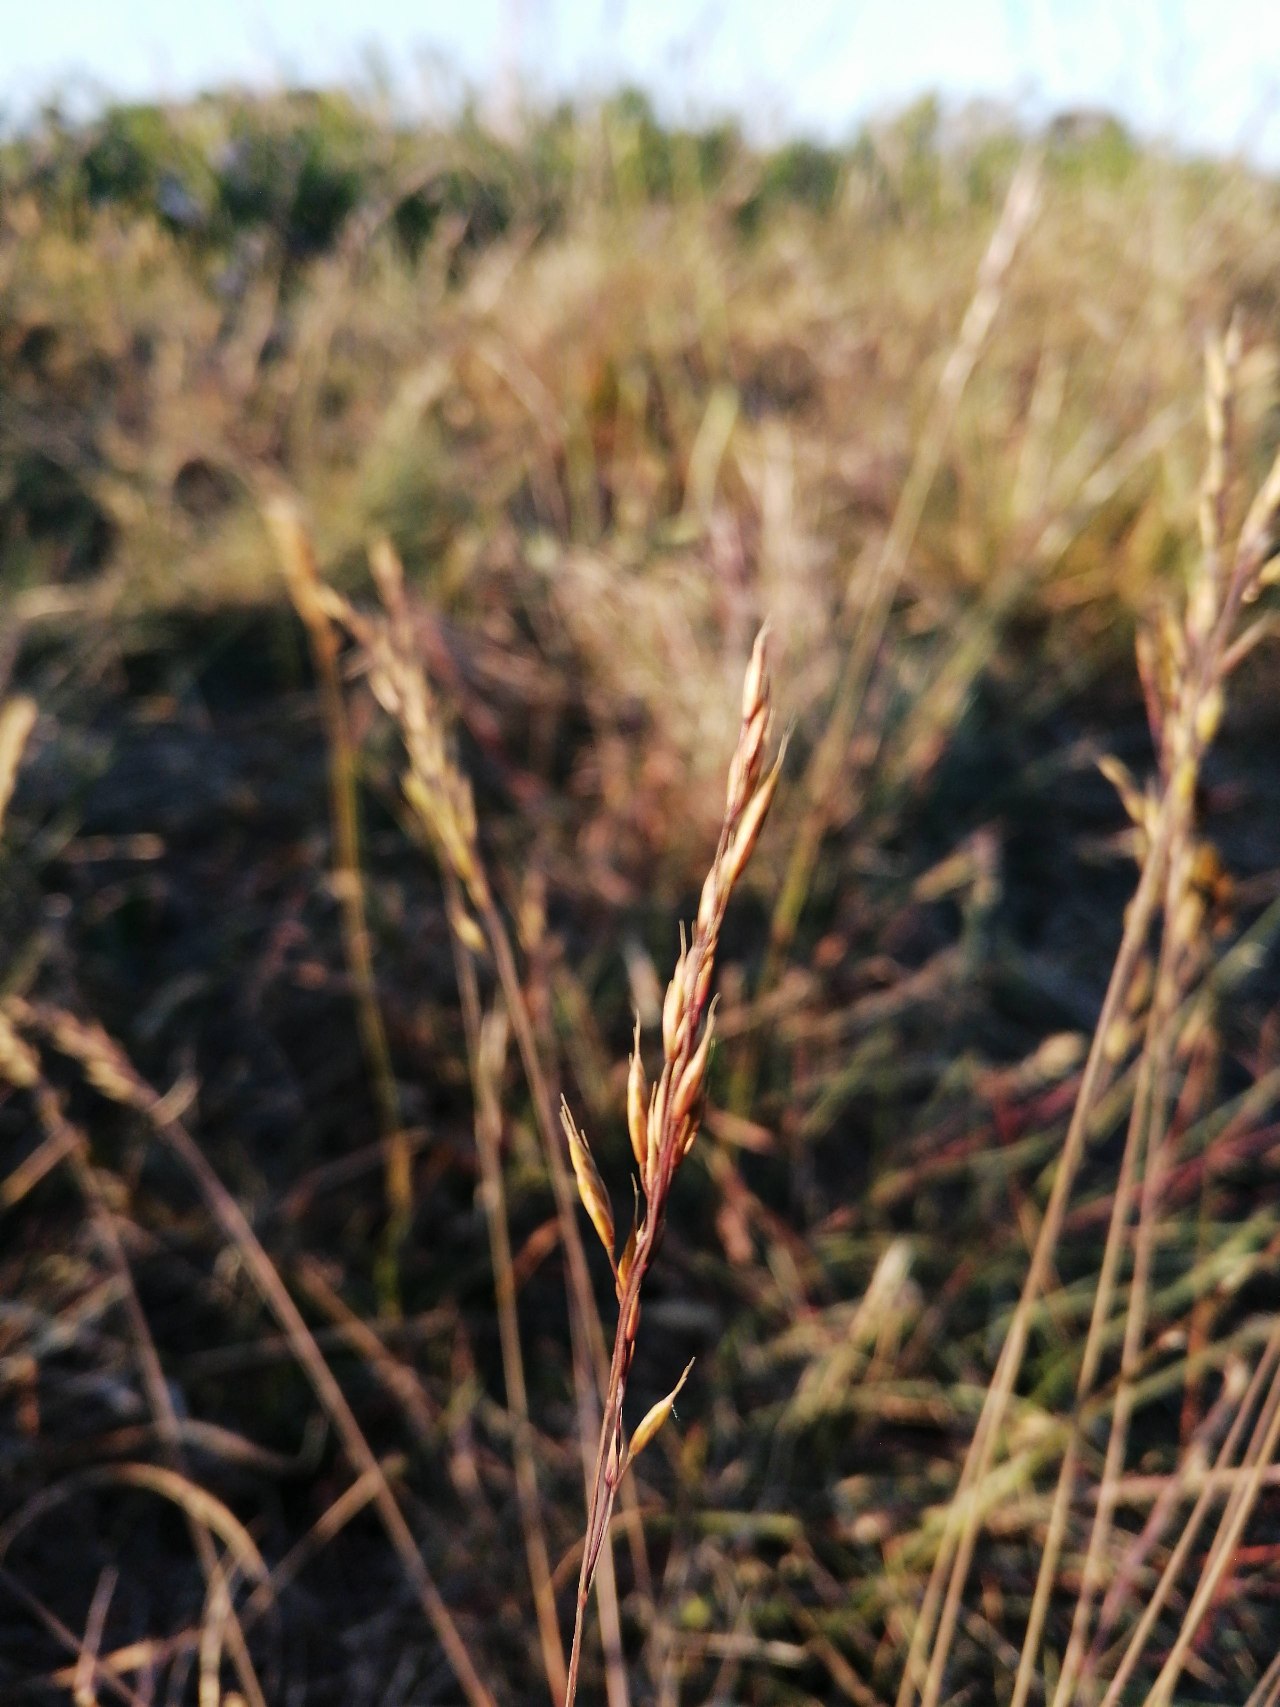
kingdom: Plantae
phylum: Tracheophyta
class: Liliopsida
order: Poales
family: Poaceae
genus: Festuca
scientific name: Festuca trachyphylla
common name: Bakke-svingel
